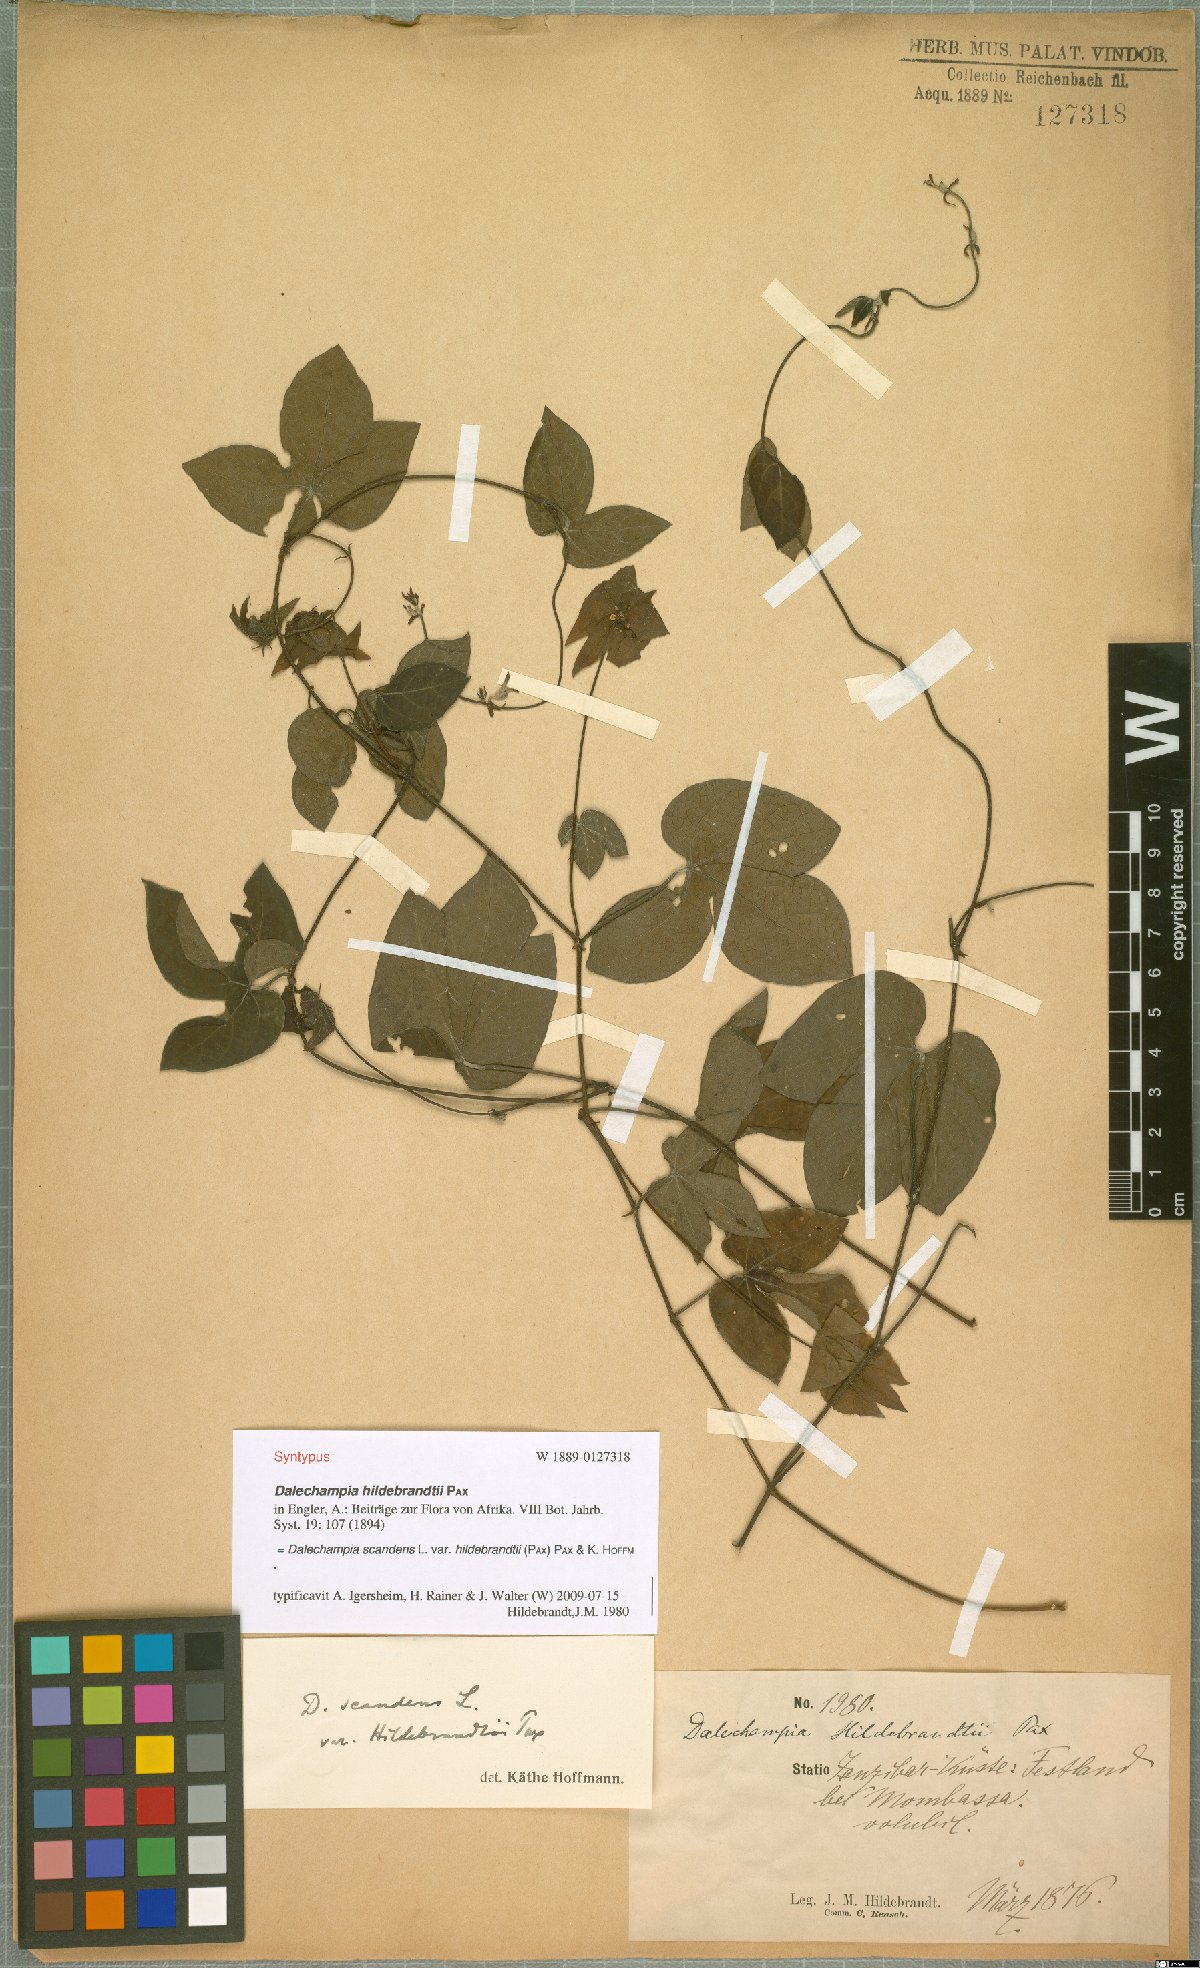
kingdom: Plantae
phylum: Tracheophyta
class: Magnoliopsida
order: Malpighiales
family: Euphorbiaceae
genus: Dalechampia
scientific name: Dalechampia scandens
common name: Spurgecreeper
